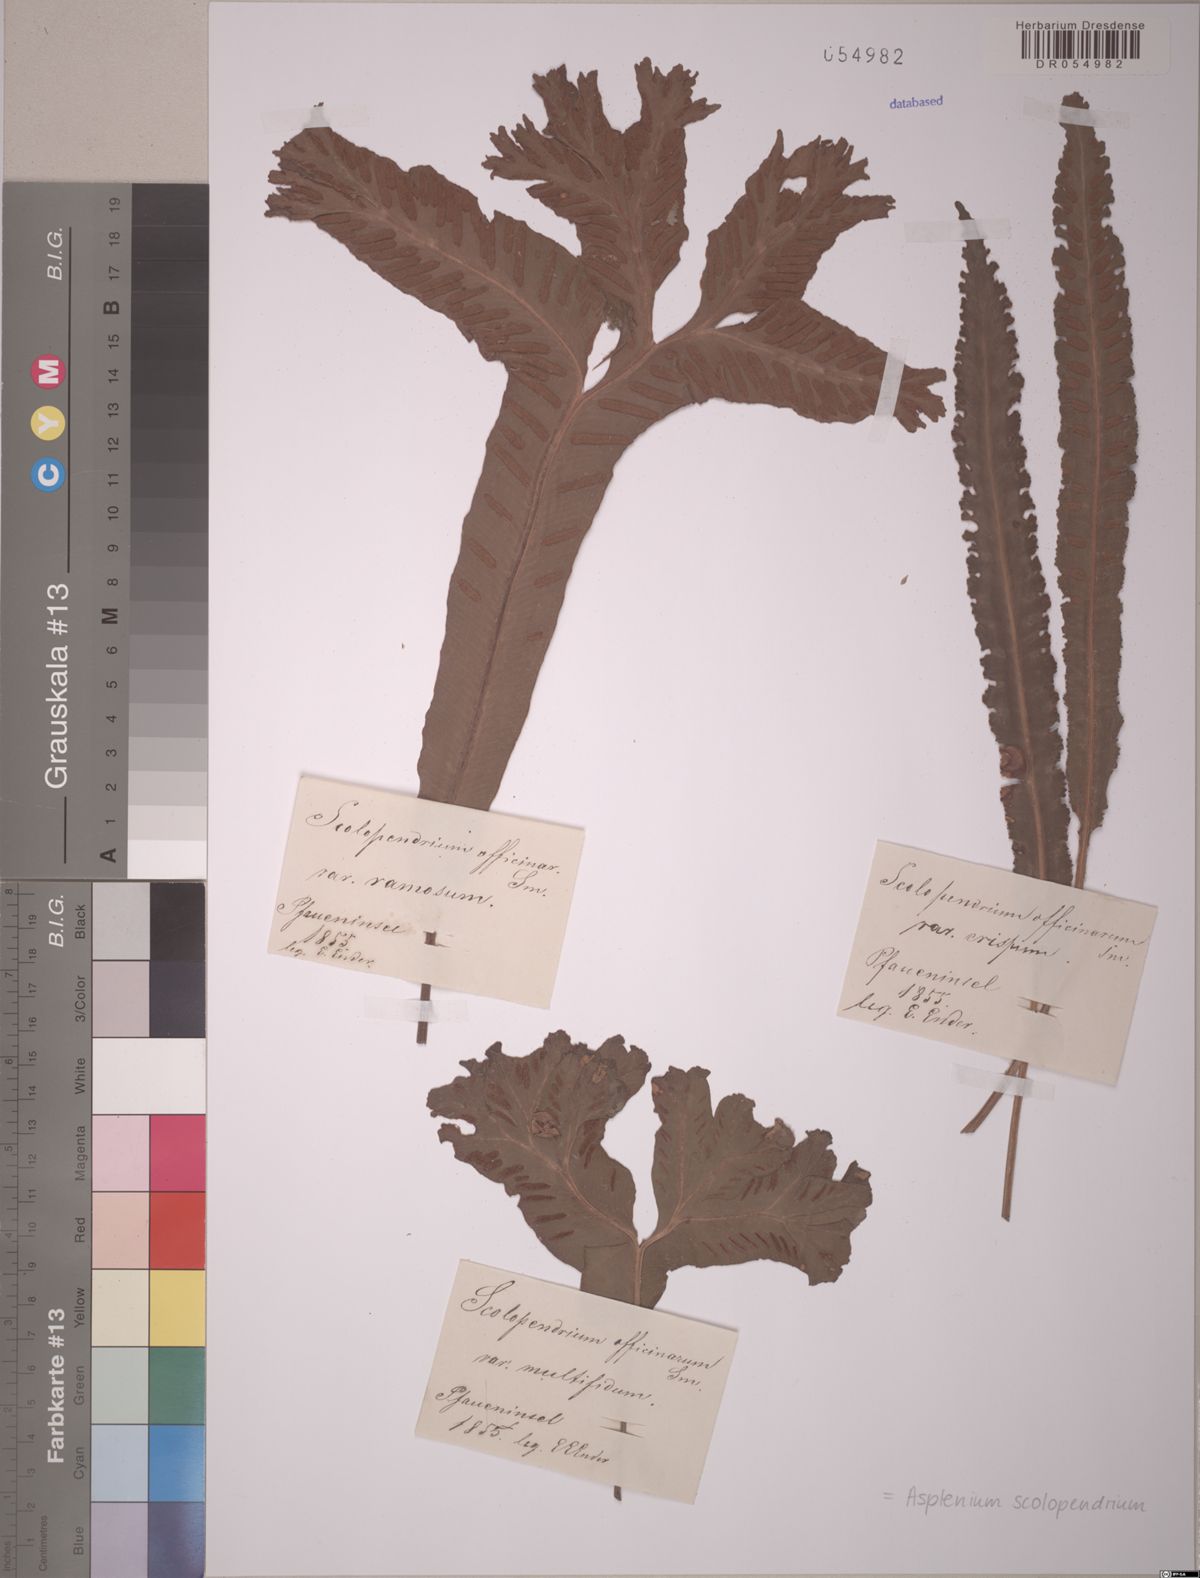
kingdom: Plantae
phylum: Tracheophyta
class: Polypodiopsida
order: Polypodiales
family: Aspleniaceae
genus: Asplenium
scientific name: Asplenium scolopendrium
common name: Hart's-tongue fern
